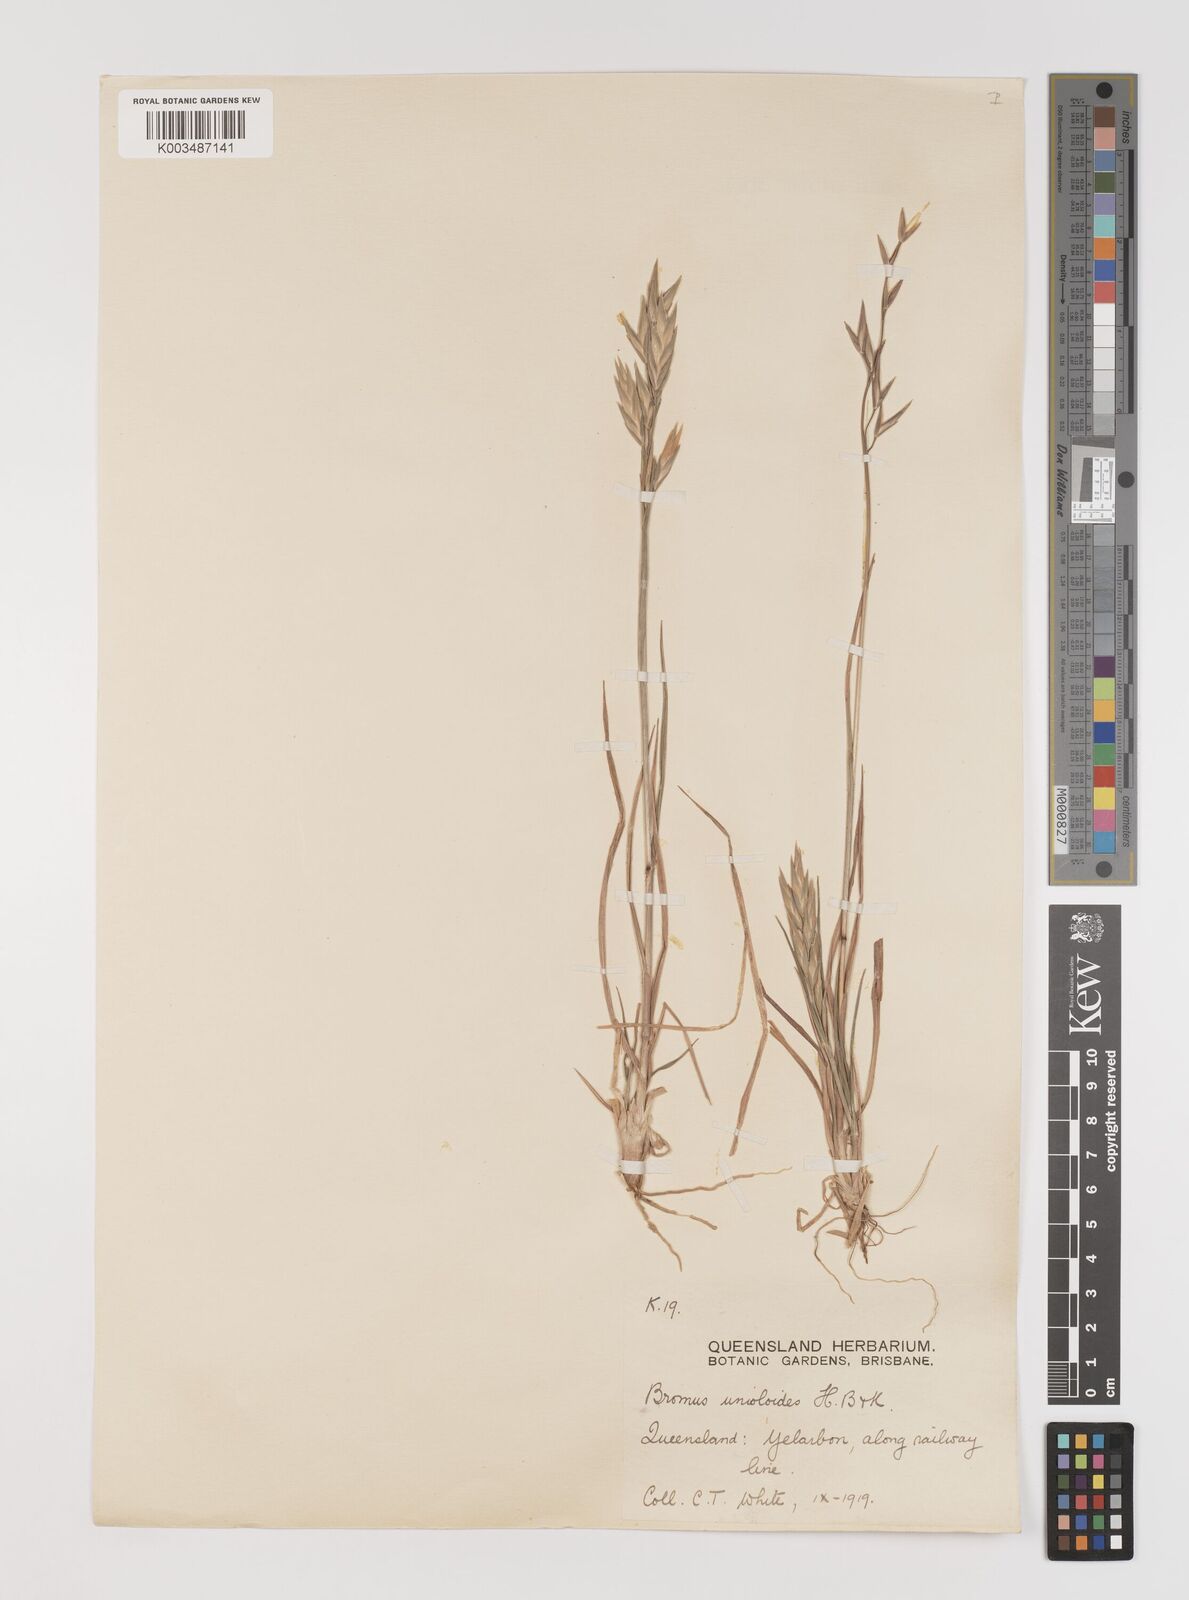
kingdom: Plantae
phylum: Tracheophyta
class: Liliopsida
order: Poales
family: Poaceae
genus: Bromus
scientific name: Bromus catharticus
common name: Rescuegrass
